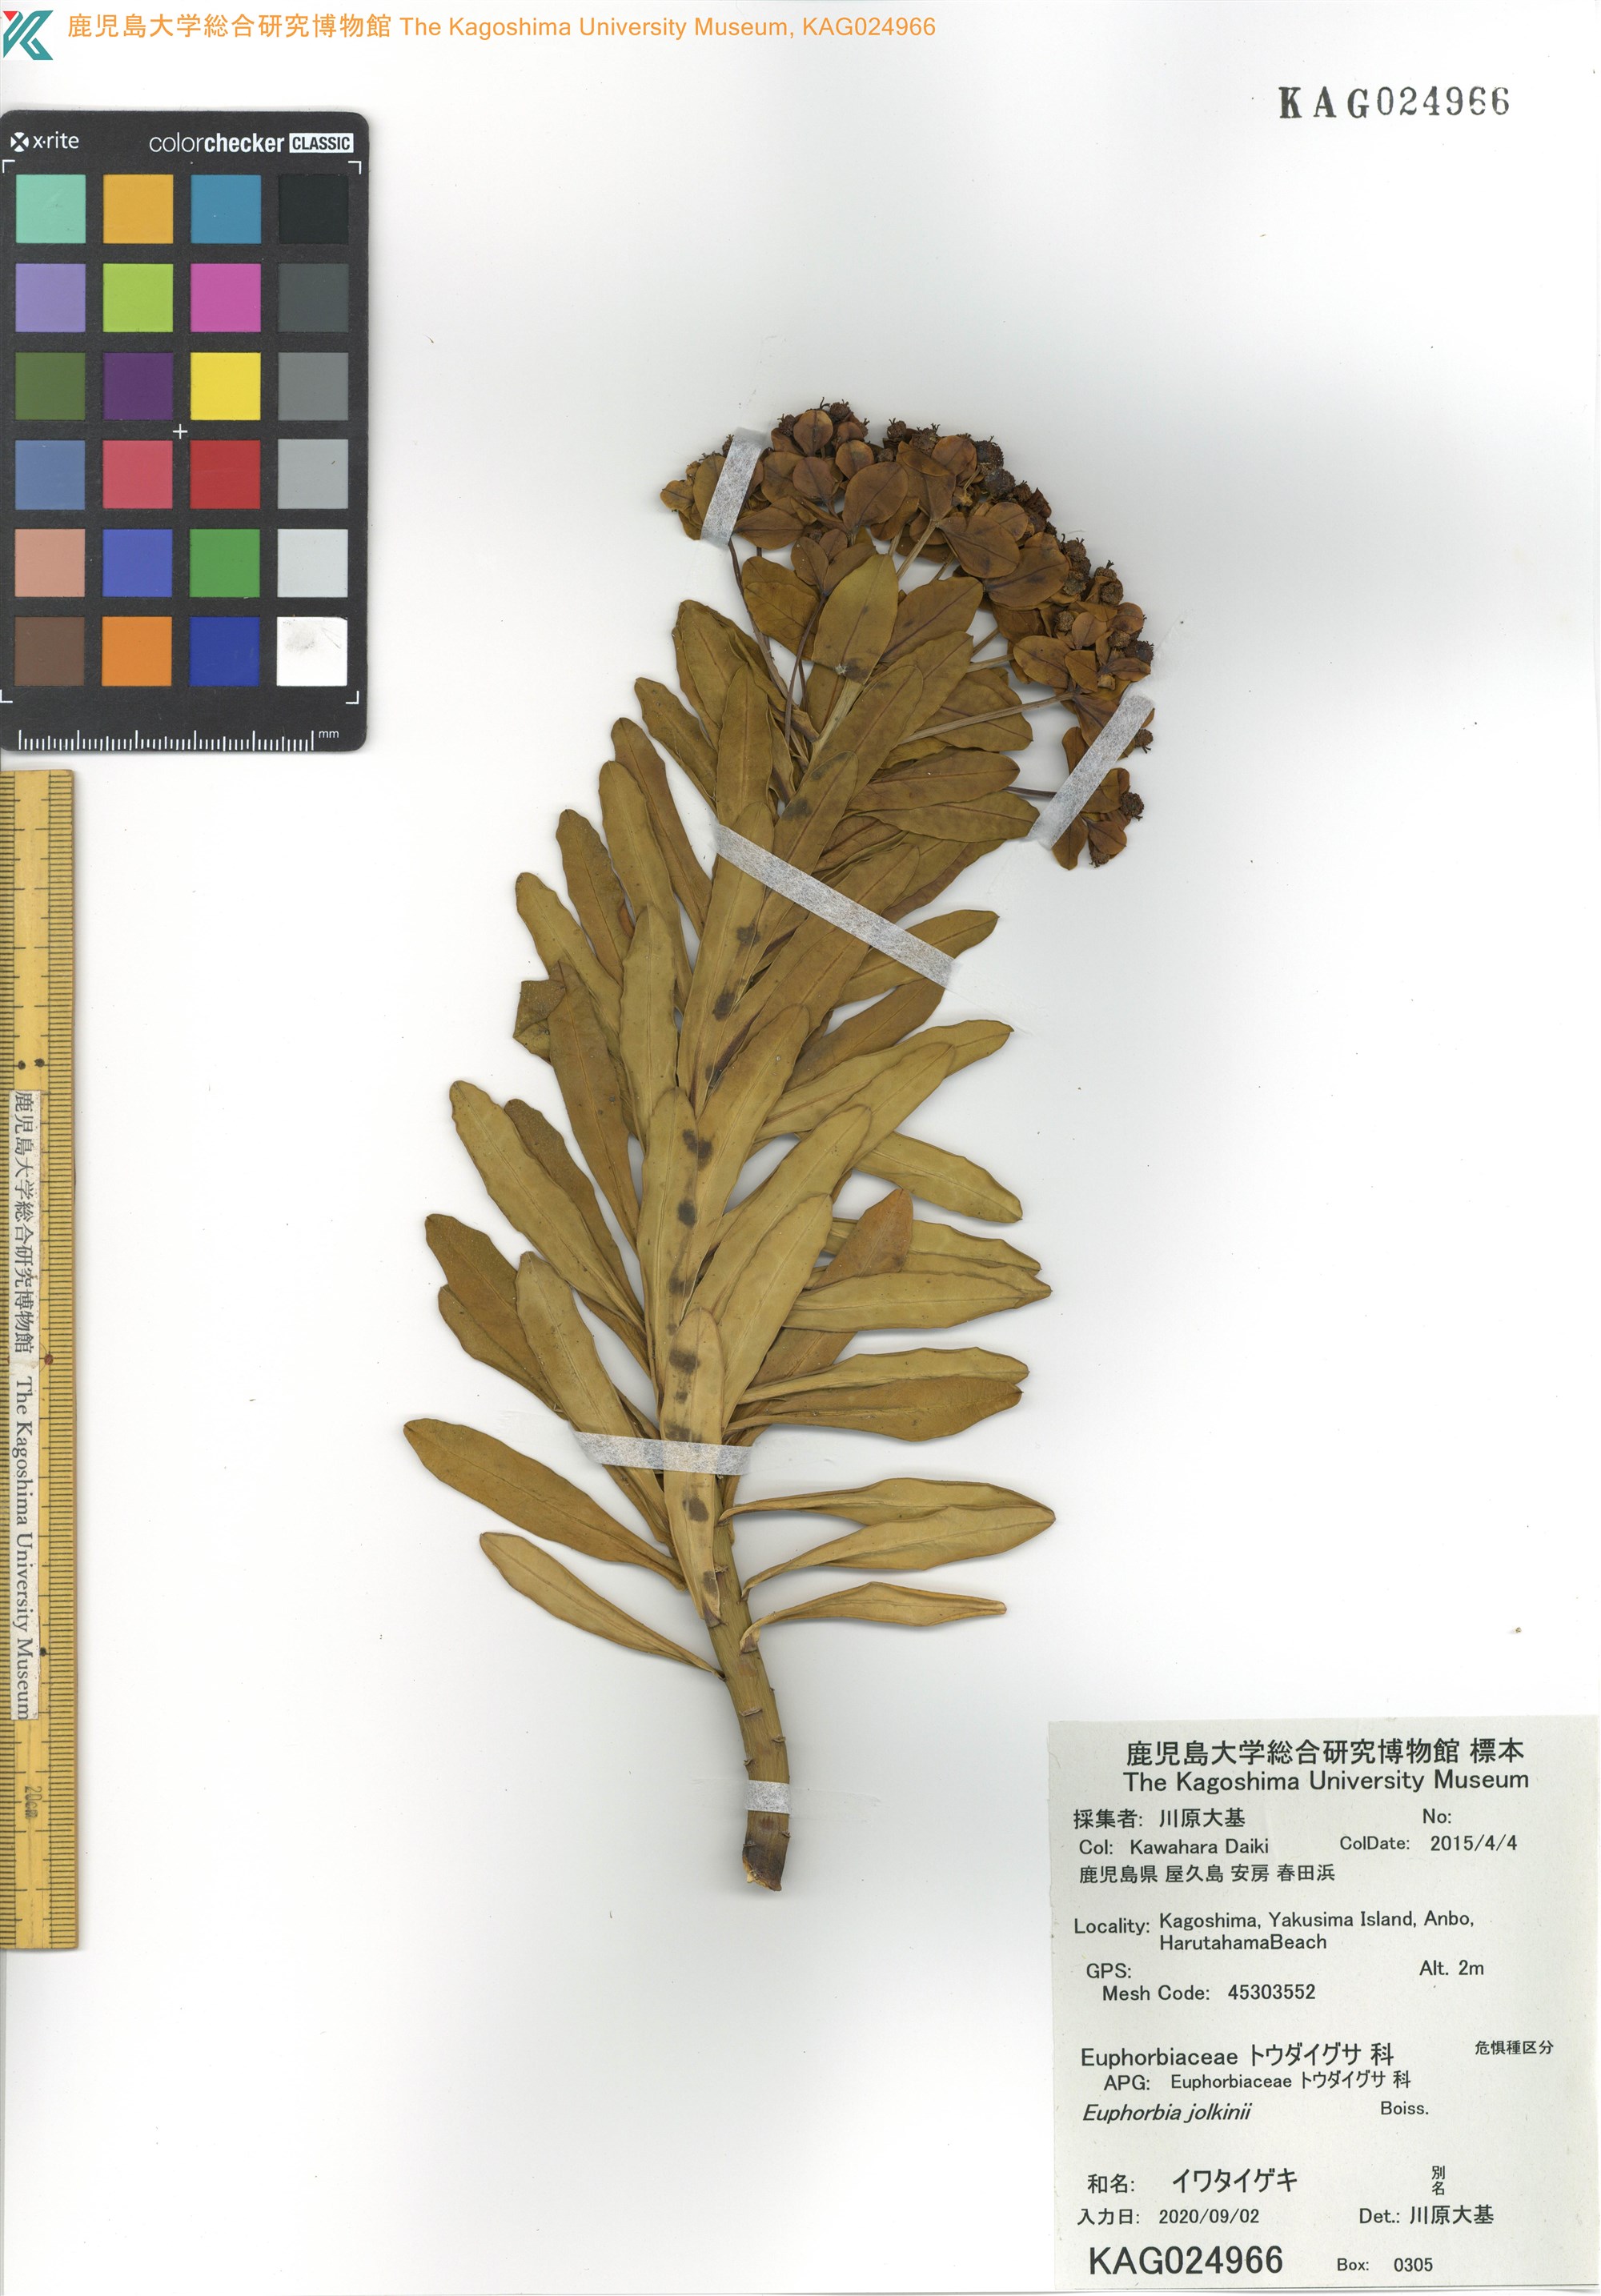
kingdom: Plantae
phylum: Tracheophyta
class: Magnoliopsida
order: Malpighiales
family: Euphorbiaceae
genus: Euphorbia
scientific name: Euphorbia jolkinii
